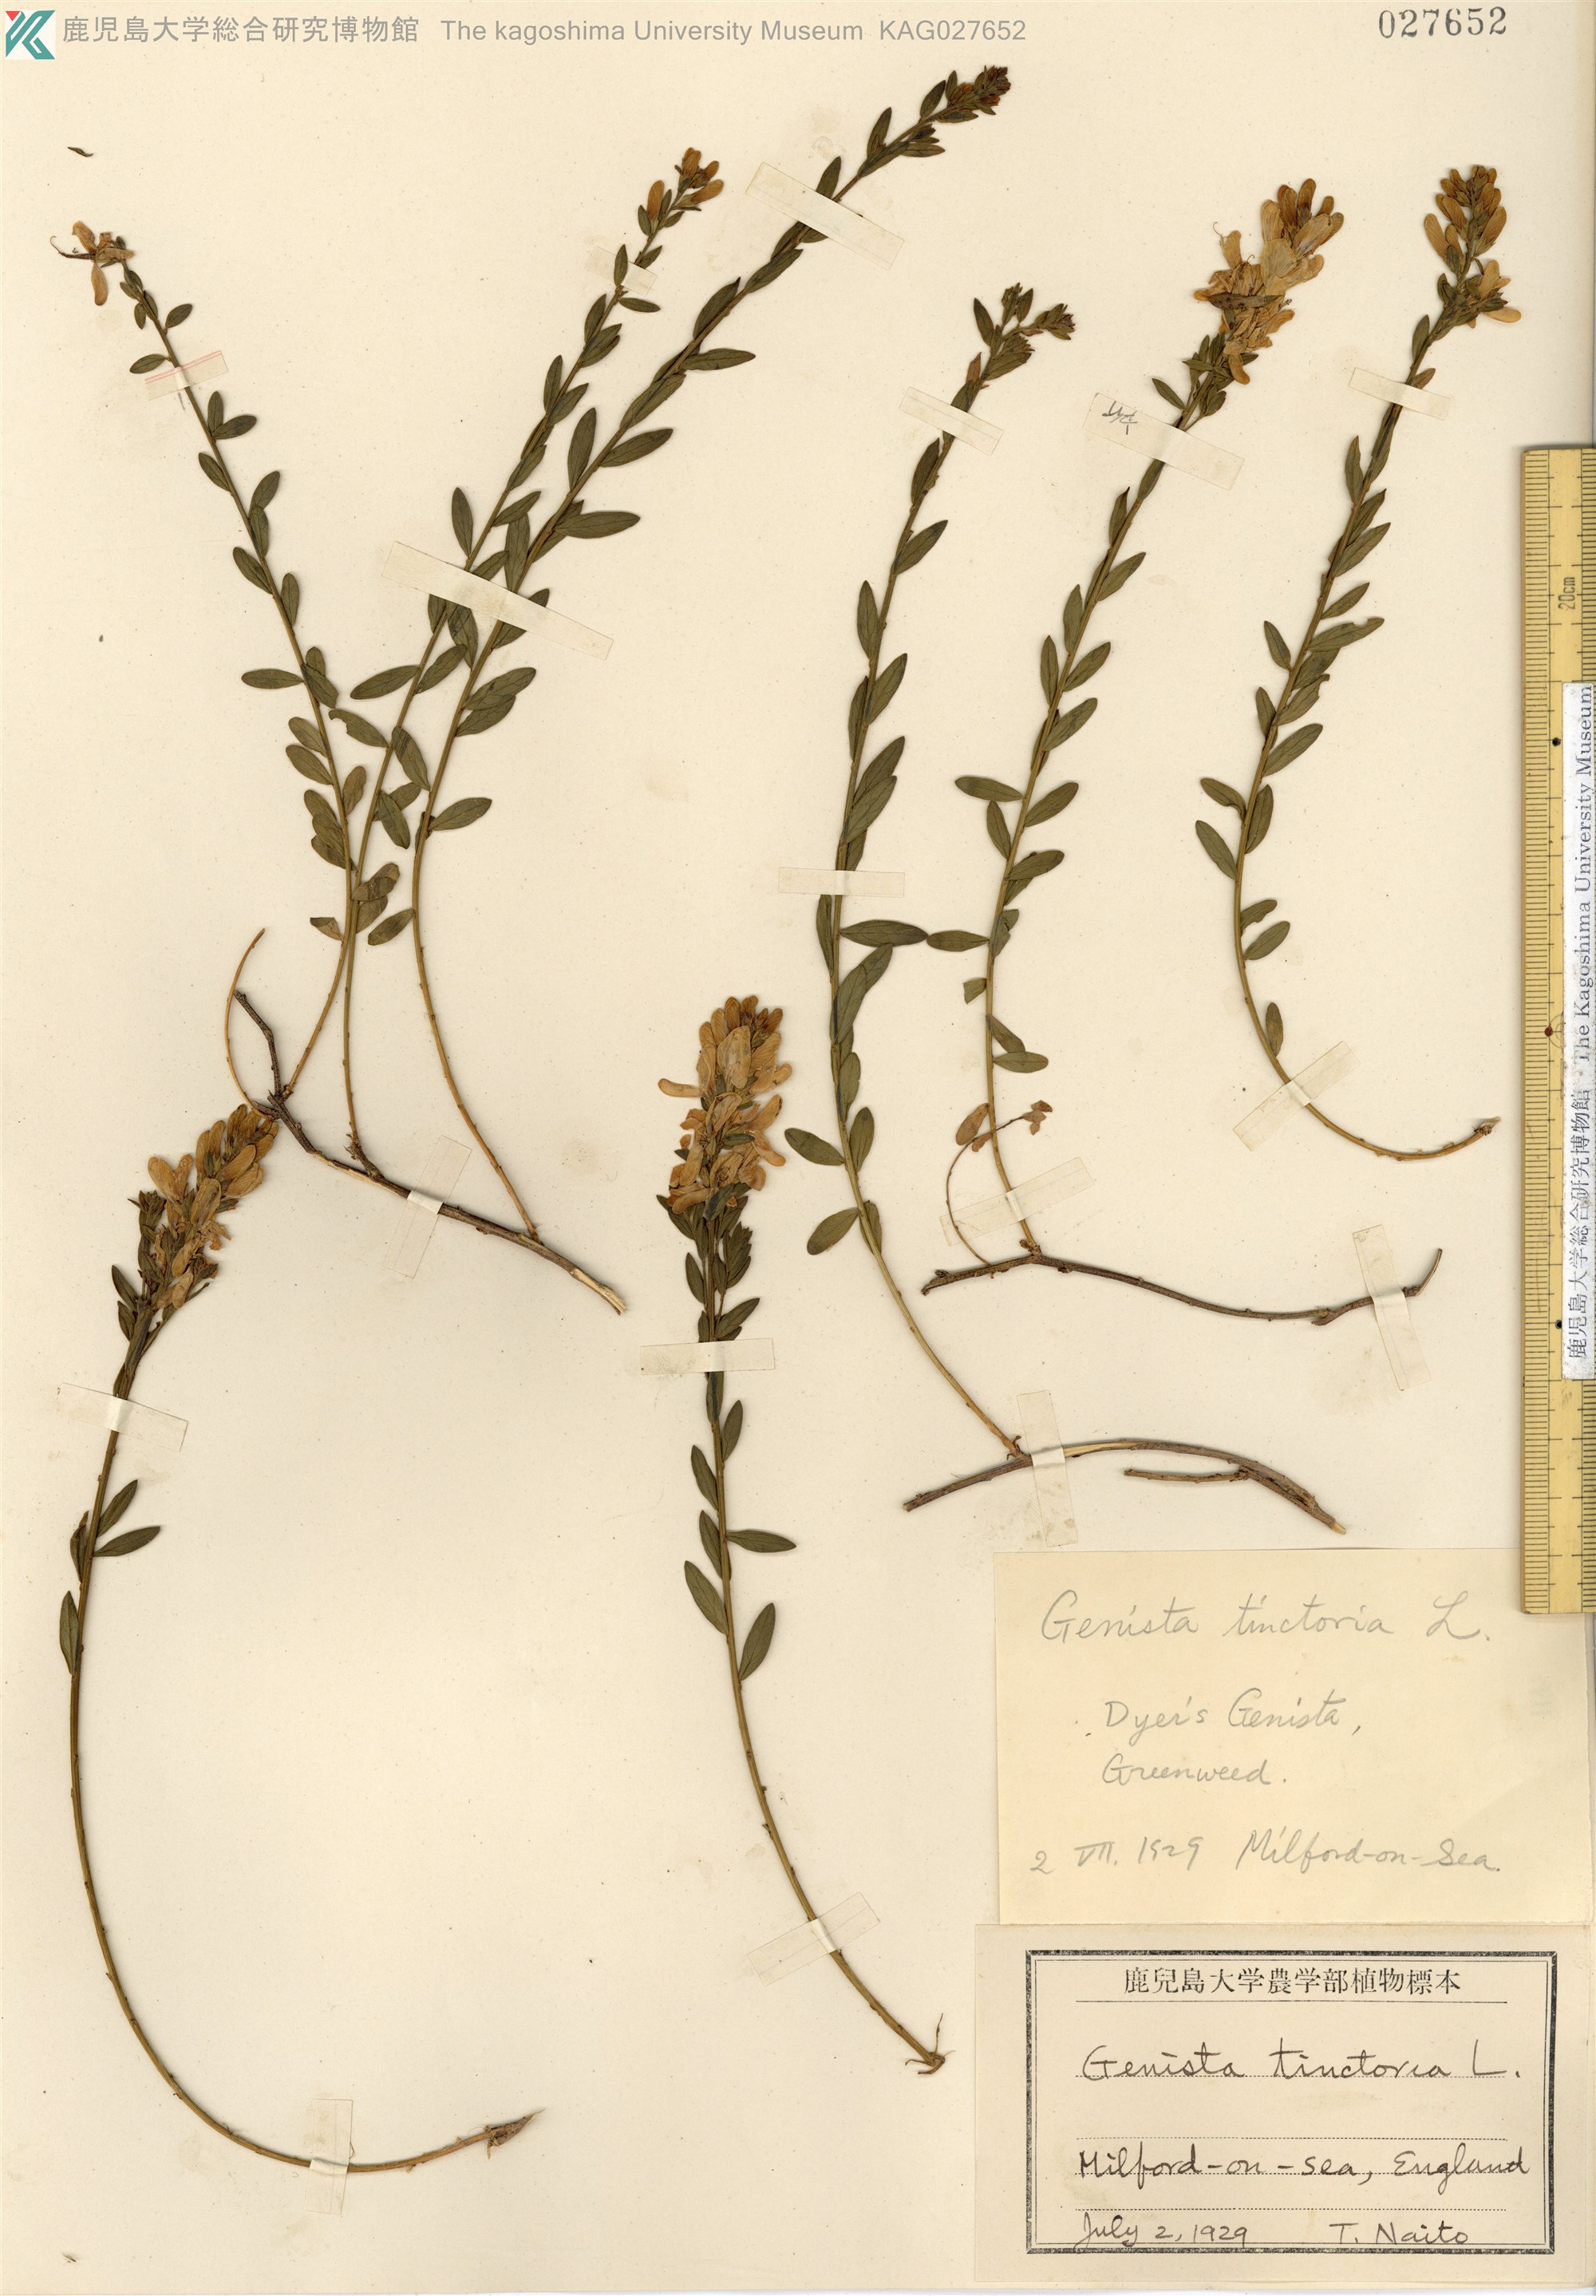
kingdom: Plantae
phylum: Tracheophyta
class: Magnoliopsida
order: Fabales
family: Fabaceae
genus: Genista
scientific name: Genista tinctoria
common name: Dyer's greenweed
